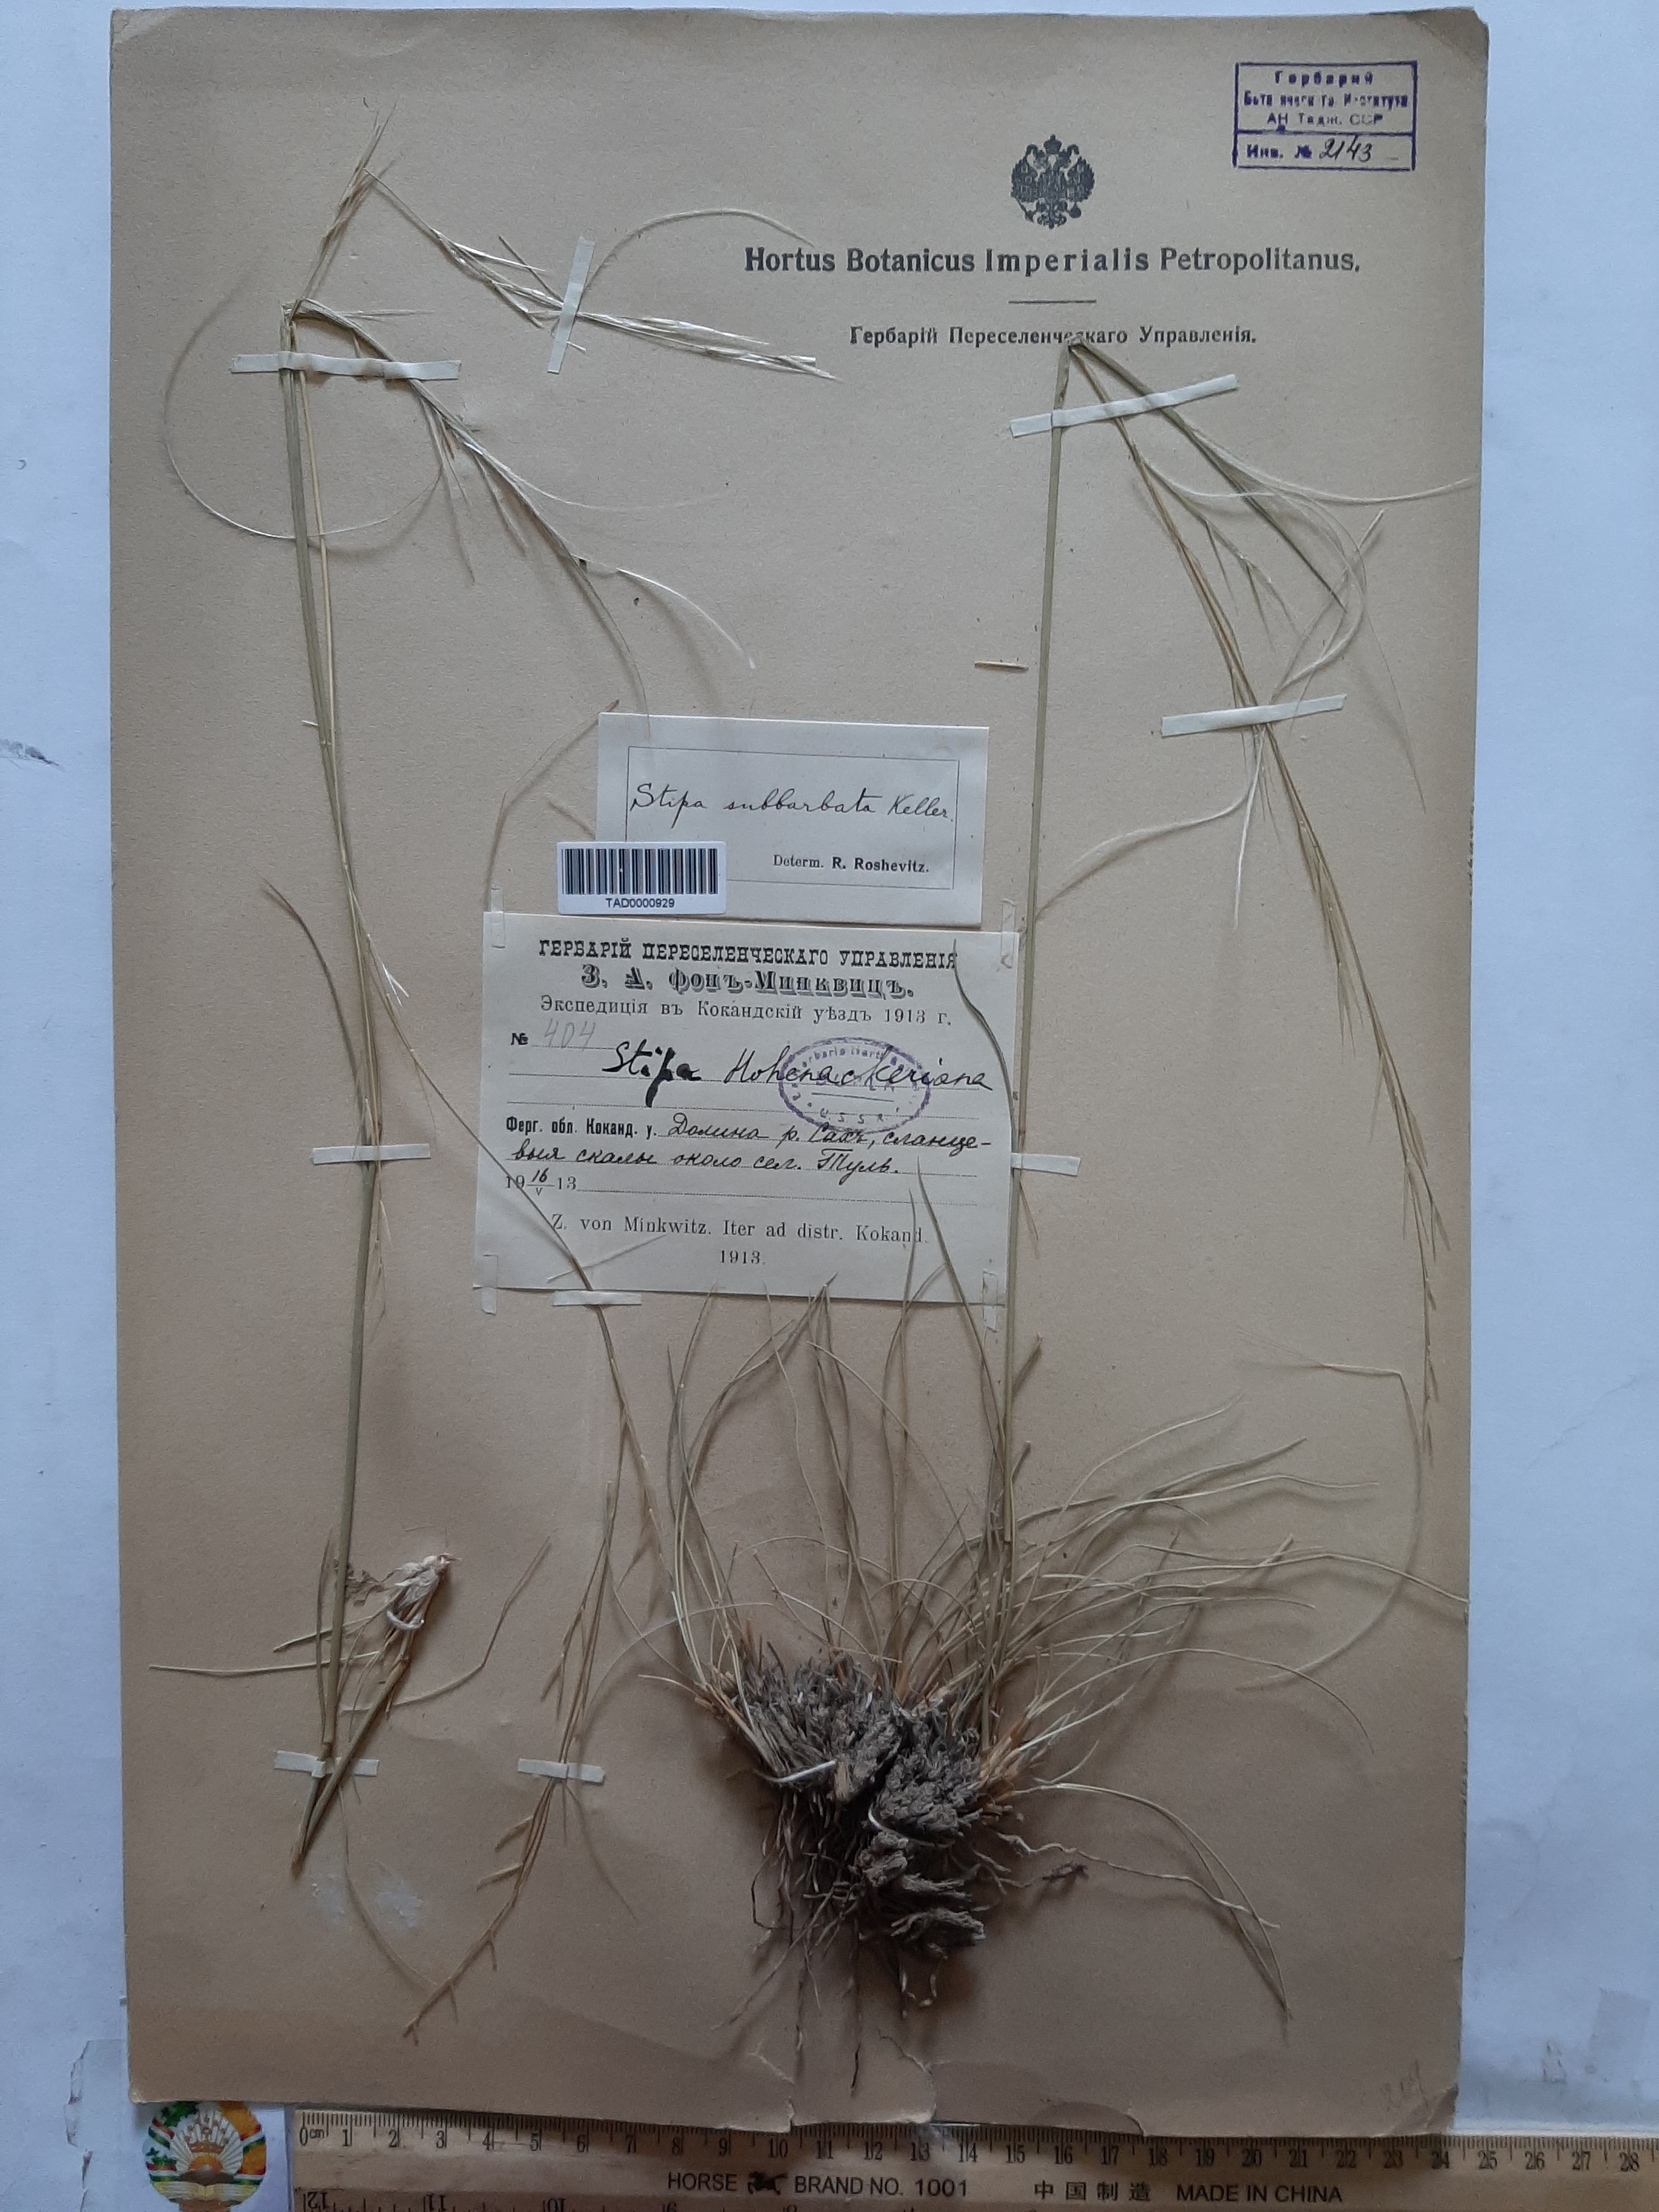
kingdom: Plantae
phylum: Tracheophyta
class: Liliopsida
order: Poales
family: Poaceae
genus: Stipa
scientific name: Stipa hohenackeriana
